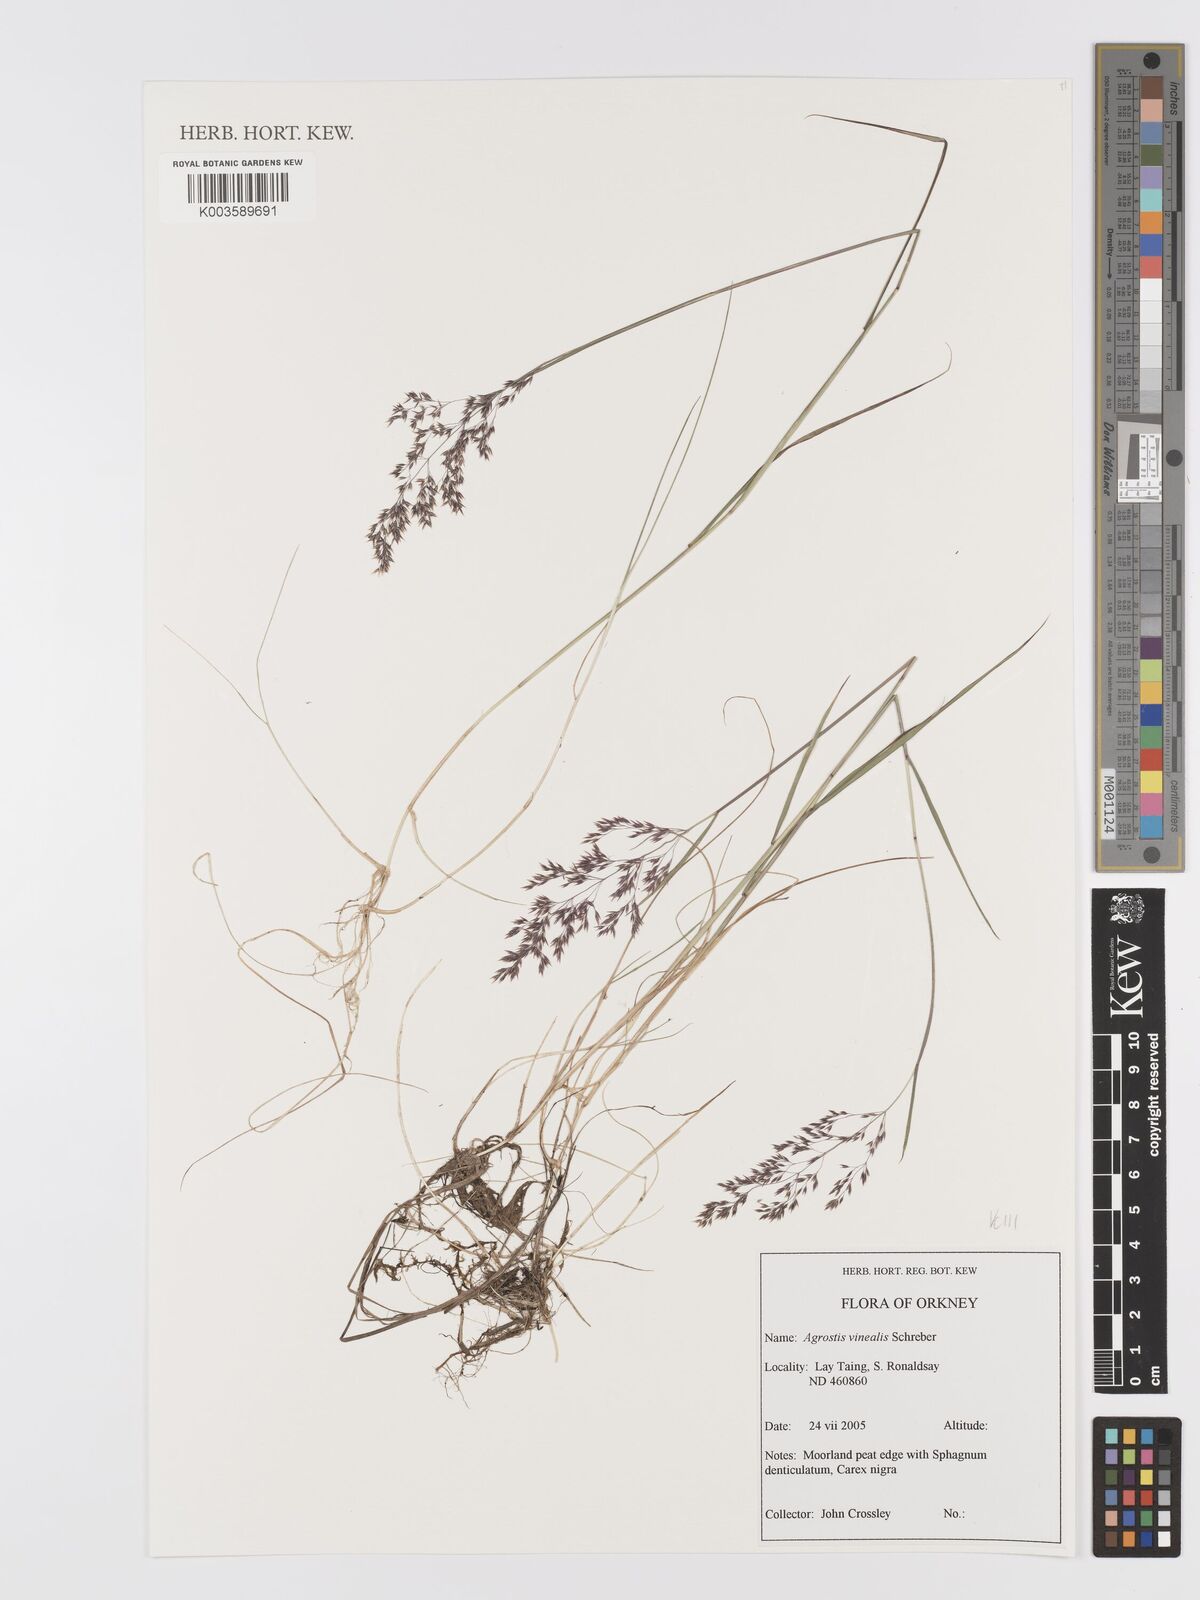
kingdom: Plantae
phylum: Tracheophyta
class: Liliopsida
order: Poales
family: Poaceae
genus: Agrostis
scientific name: Agrostis
